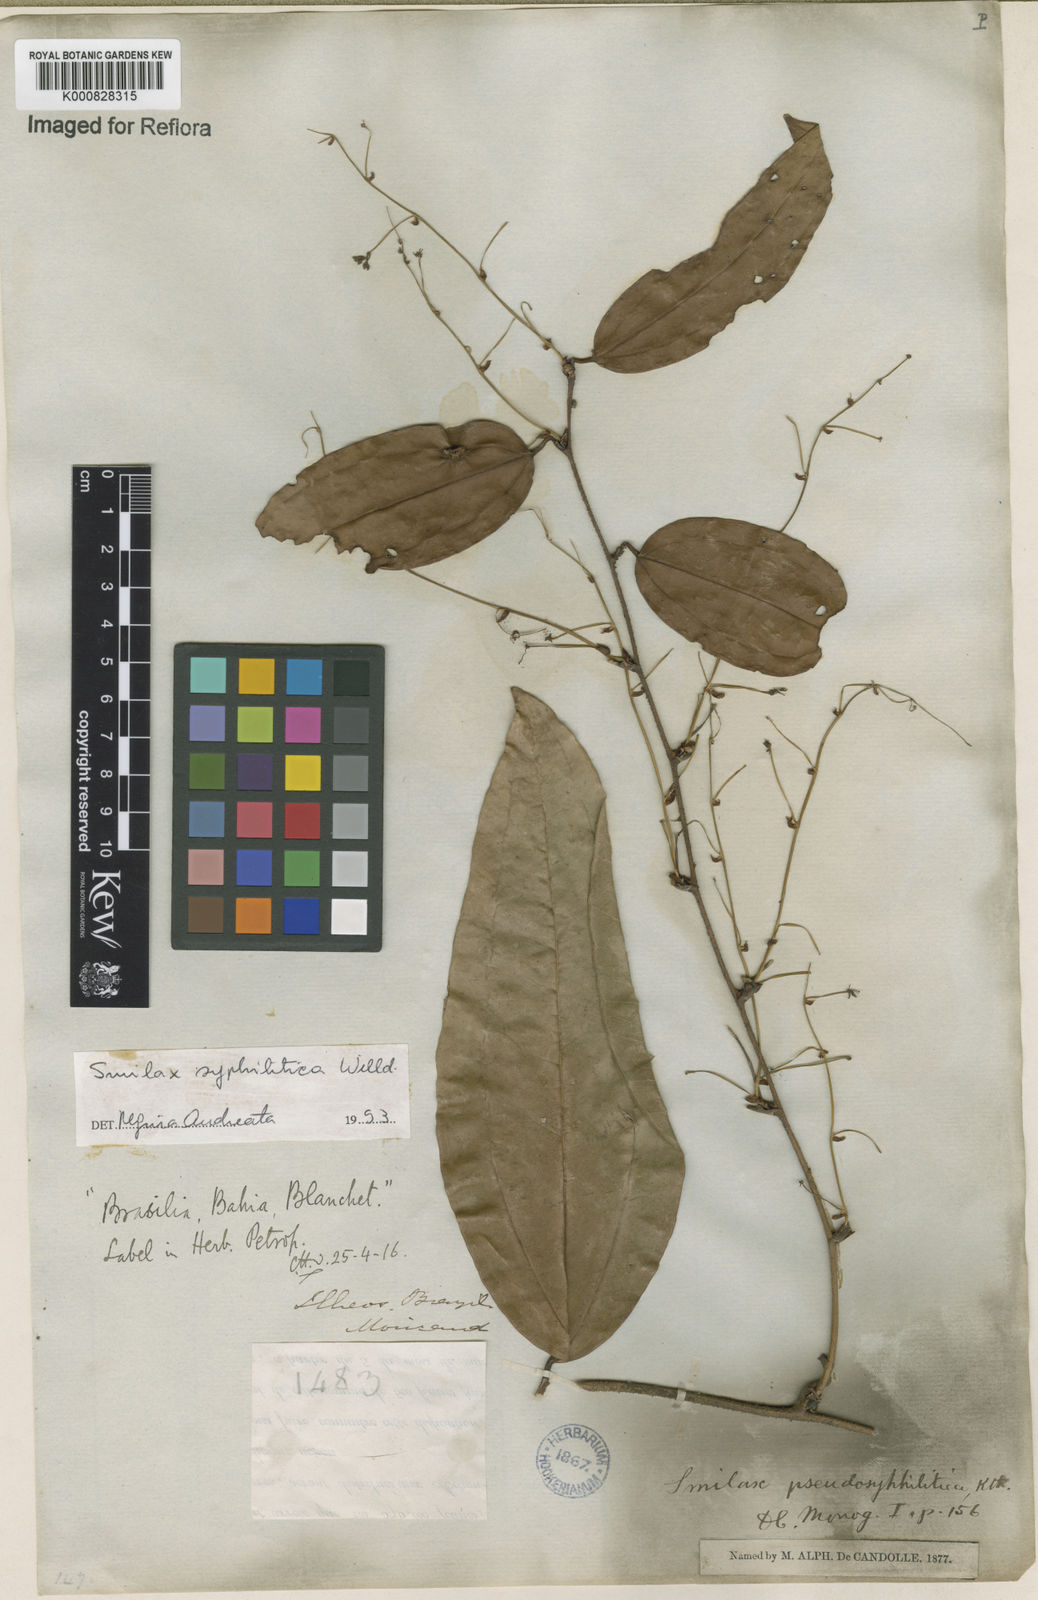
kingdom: Plantae
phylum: Tracheophyta
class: Liliopsida
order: Liliales
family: Smilacaceae
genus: Smilax
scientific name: Smilax siphilitica
